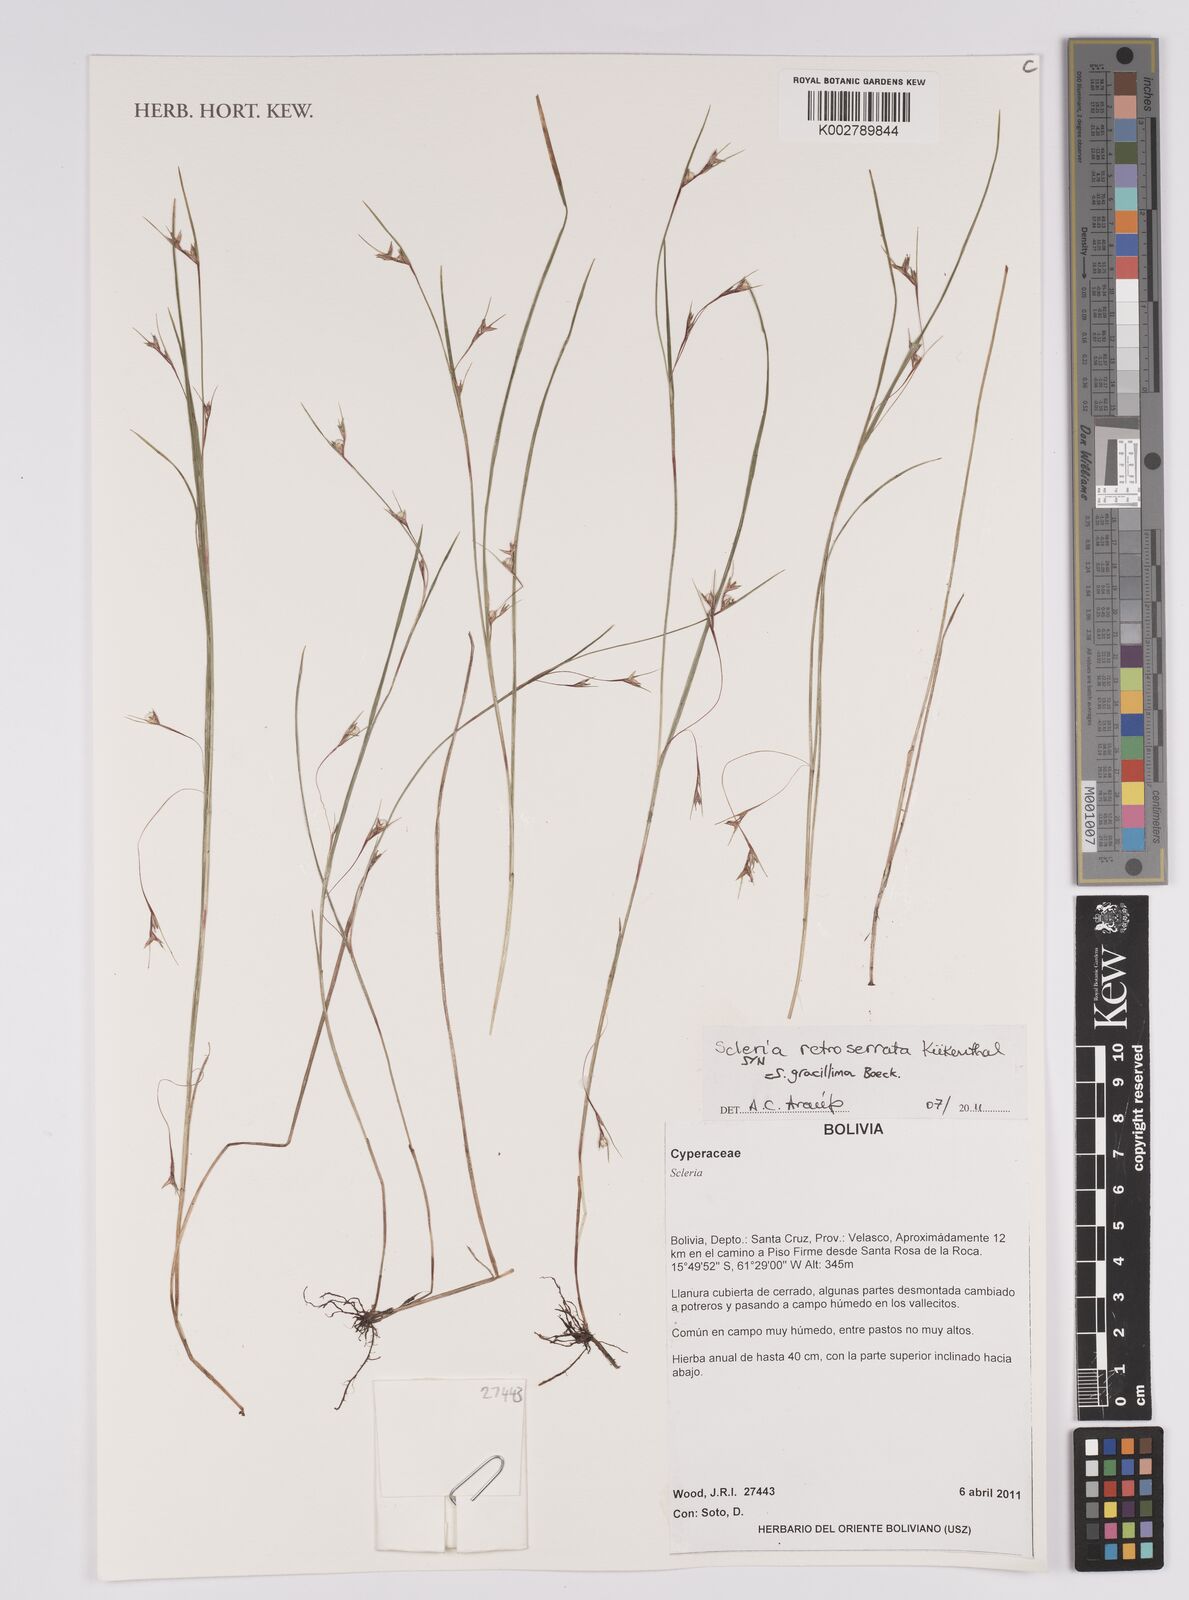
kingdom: Plantae
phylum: Tracheophyta
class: Liliopsida
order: Poales
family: Cyperaceae
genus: Scleria
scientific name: Scleria gracillima
